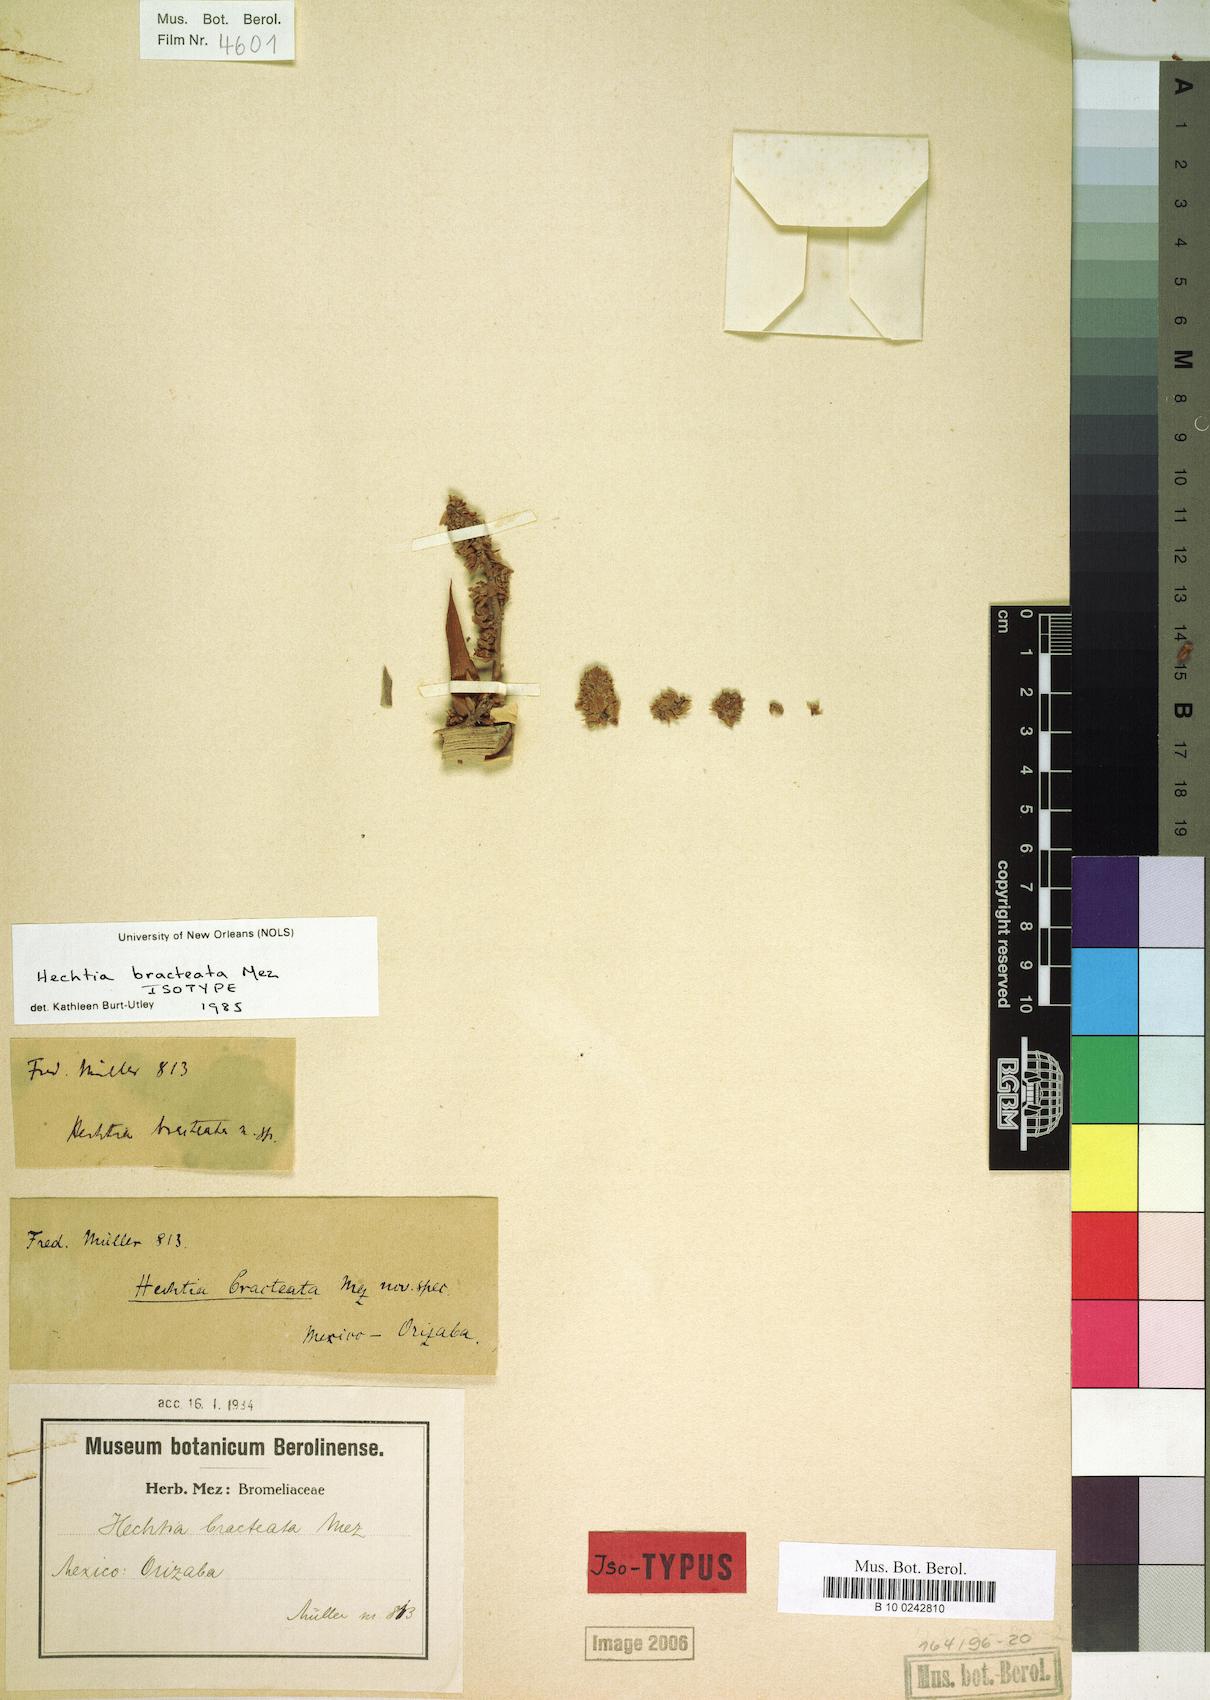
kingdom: Plantae
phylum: Tracheophyta
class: Liliopsida
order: Poales
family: Bromeliaceae
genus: Hechtia
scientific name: Hechtia bracteata
